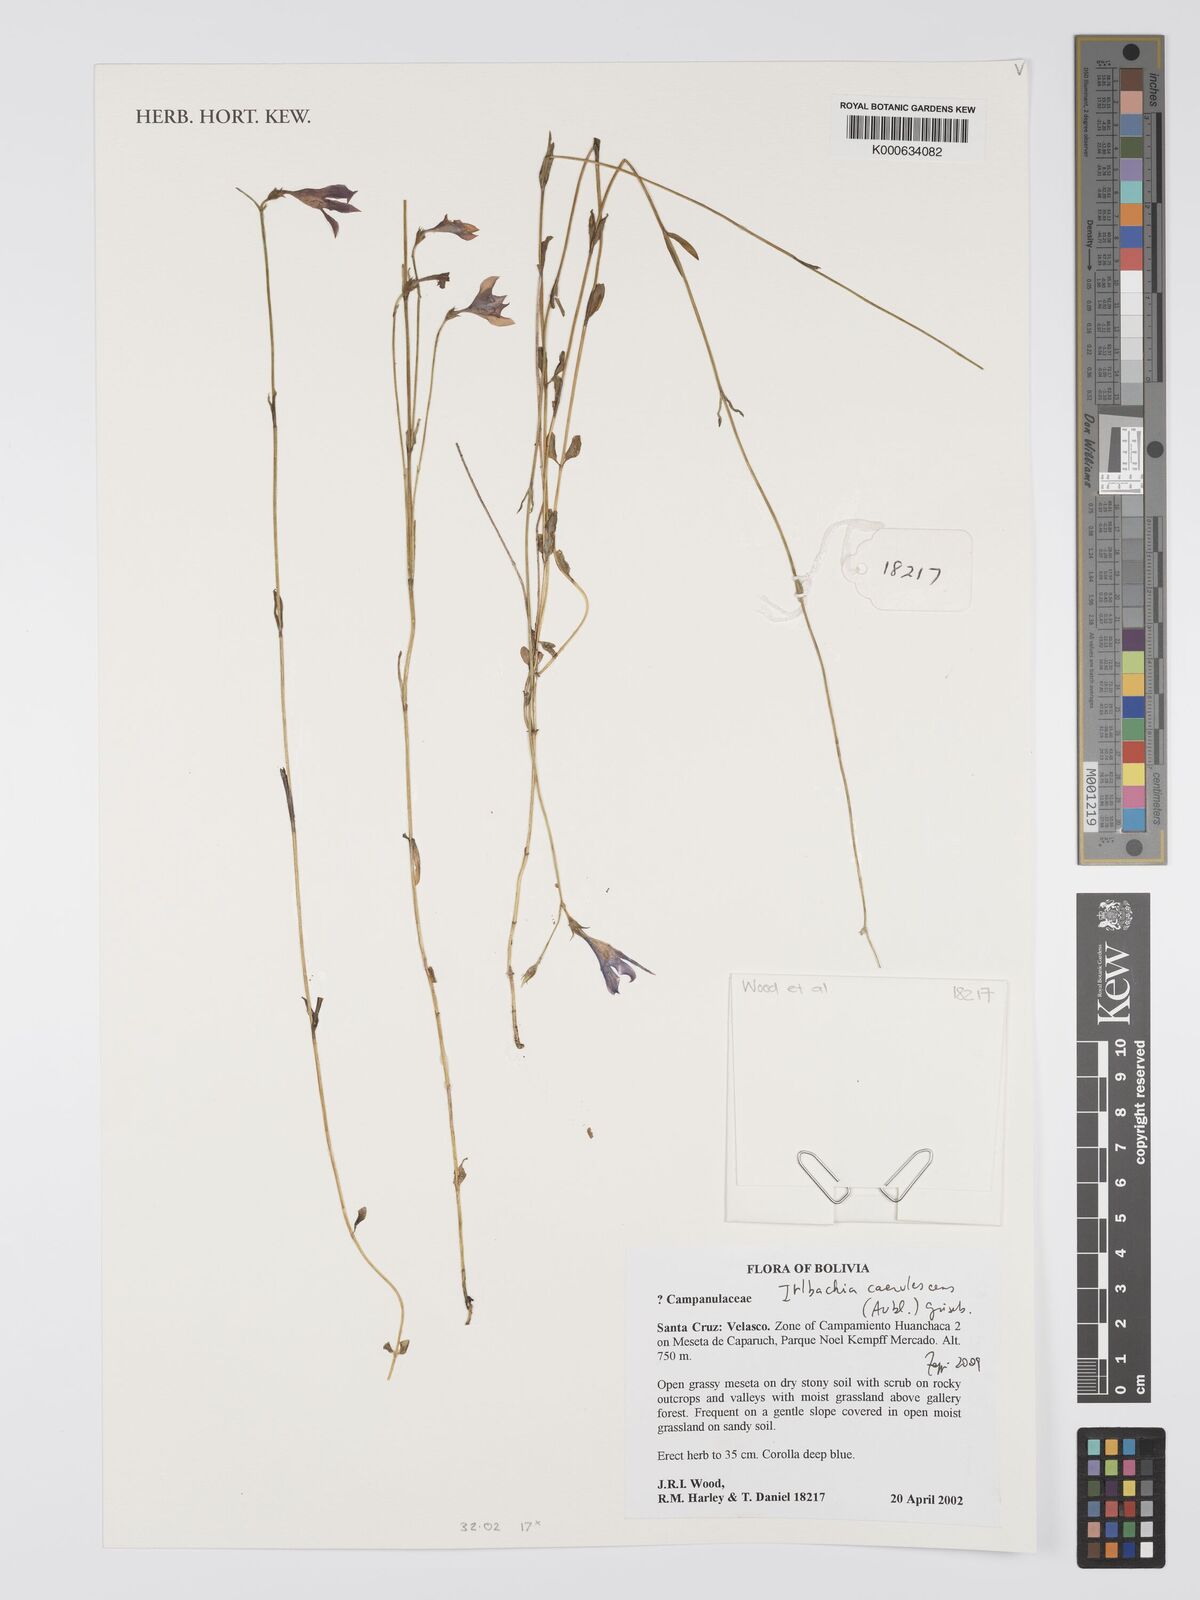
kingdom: Plantae
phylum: Tracheophyta
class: Magnoliopsida
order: Gentianales
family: Gentianaceae
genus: Tetrapollinia
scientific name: Tetrapollinia caerulescens
